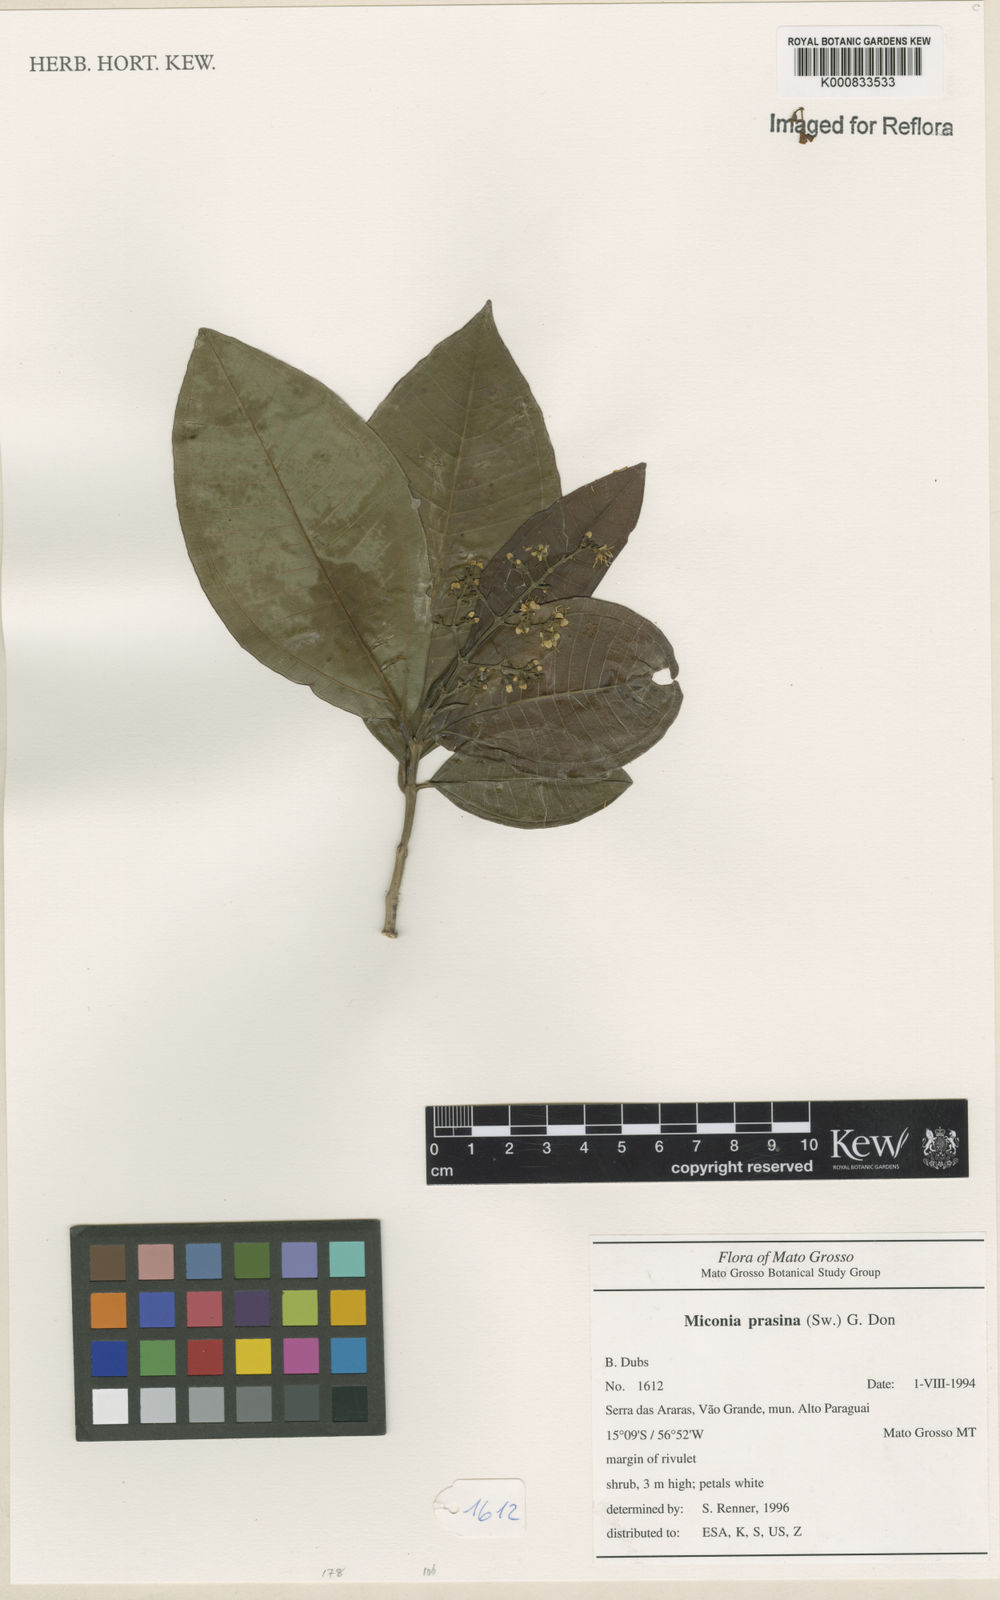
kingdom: Plantae
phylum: Tracheophyta
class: Magnoliopsida
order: Myrtales
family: Melastomataceae
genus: Miconia
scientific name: Miconia chamissois
